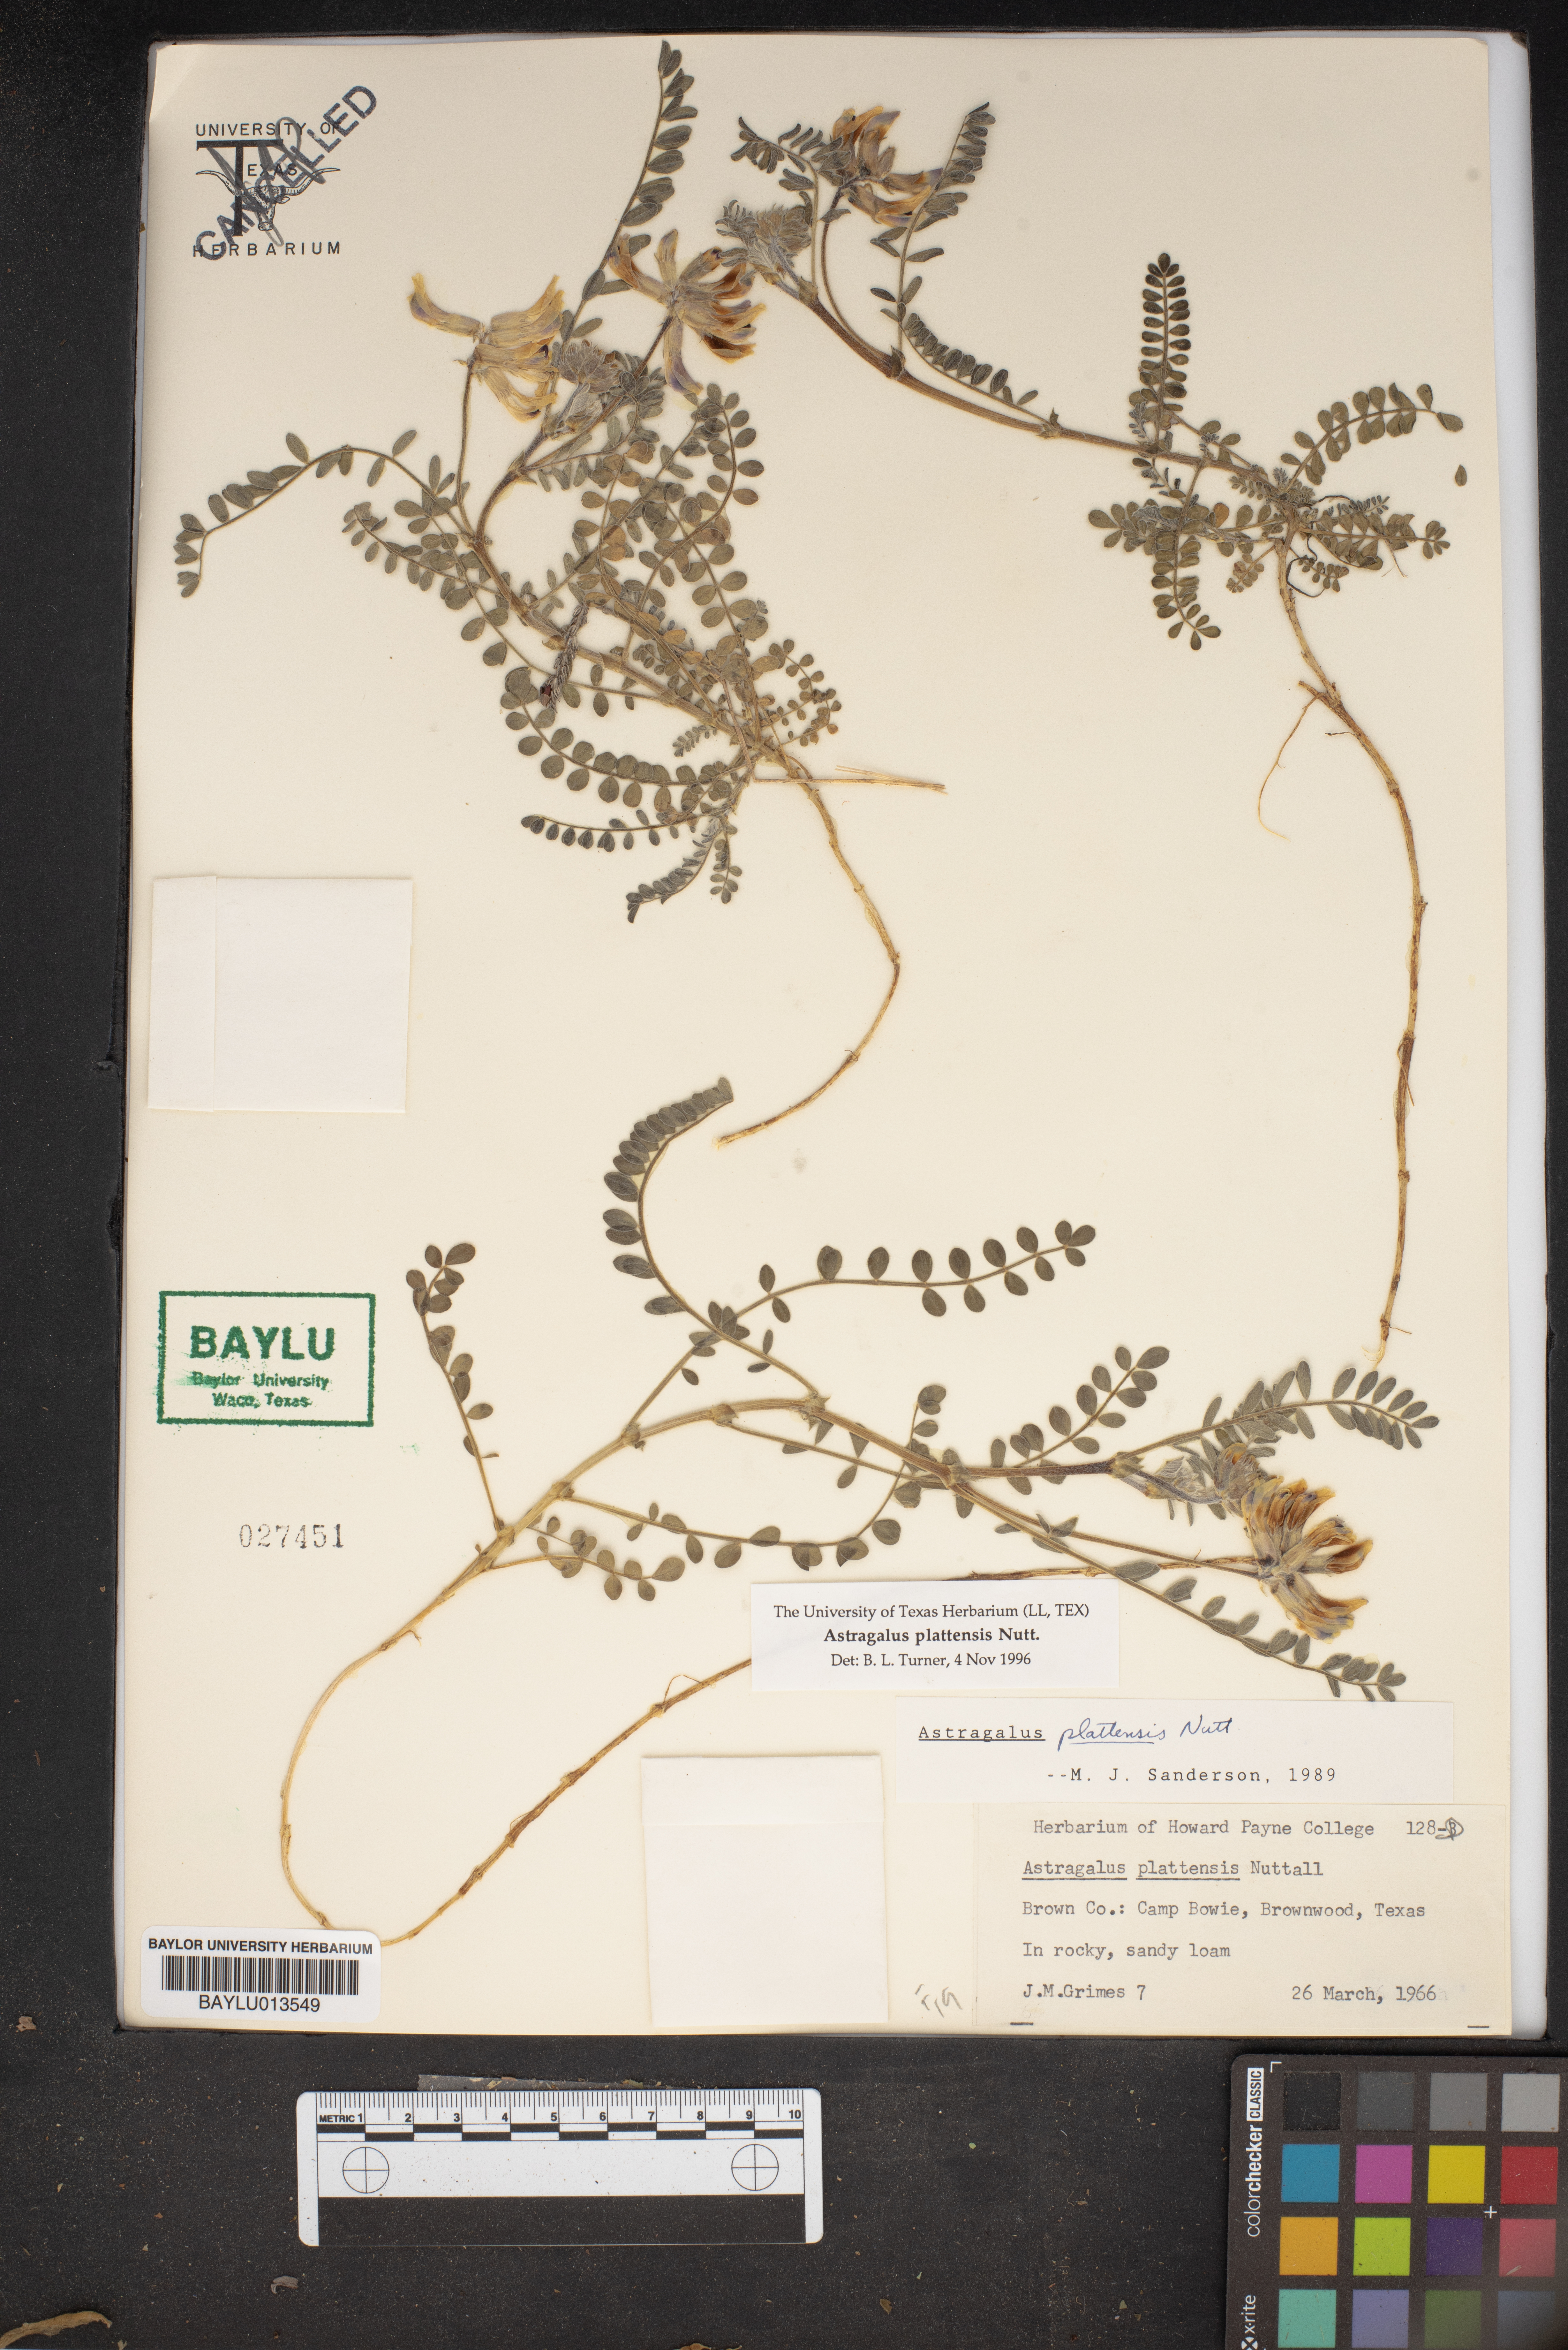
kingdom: Plantae
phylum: Tracheophyta
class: Magnoliopsida
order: Fabales
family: Fabaceae
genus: Astragalus
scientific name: Astragalus plattensis
